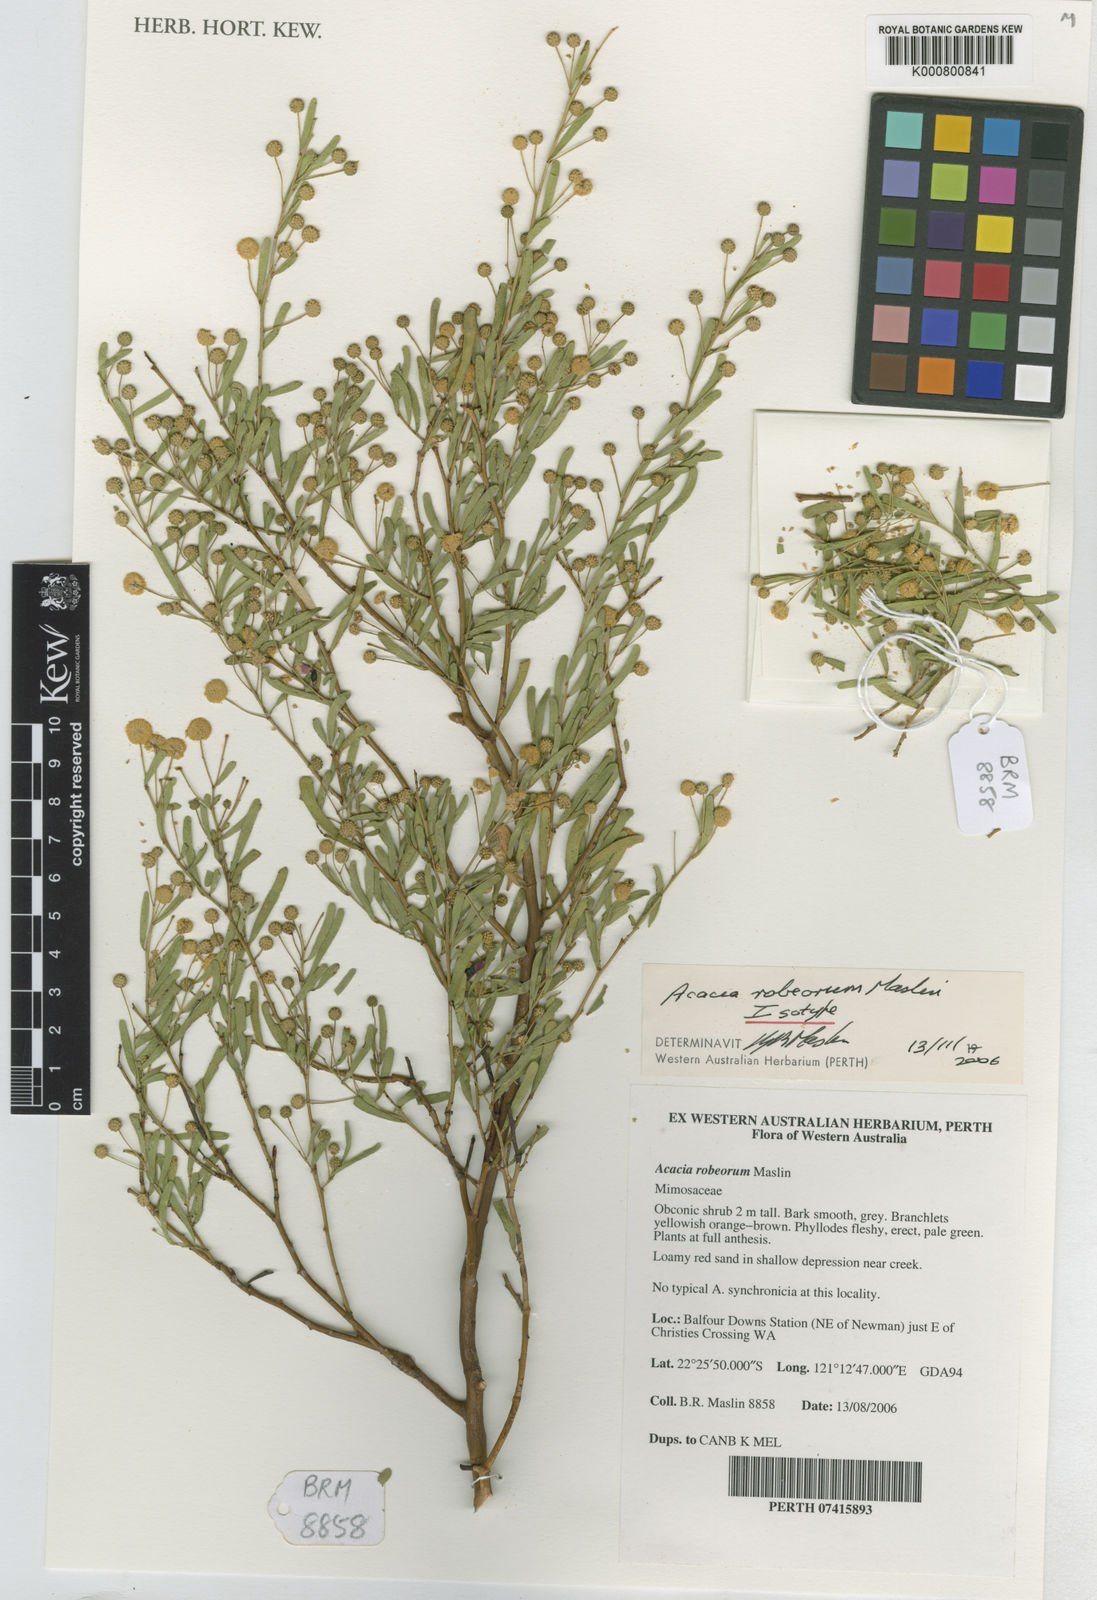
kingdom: Plantae
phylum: Tracheophyta
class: Magnoliopsida
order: Fabales
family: Fabaceae
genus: Acacia
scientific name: Acacia robeorum
